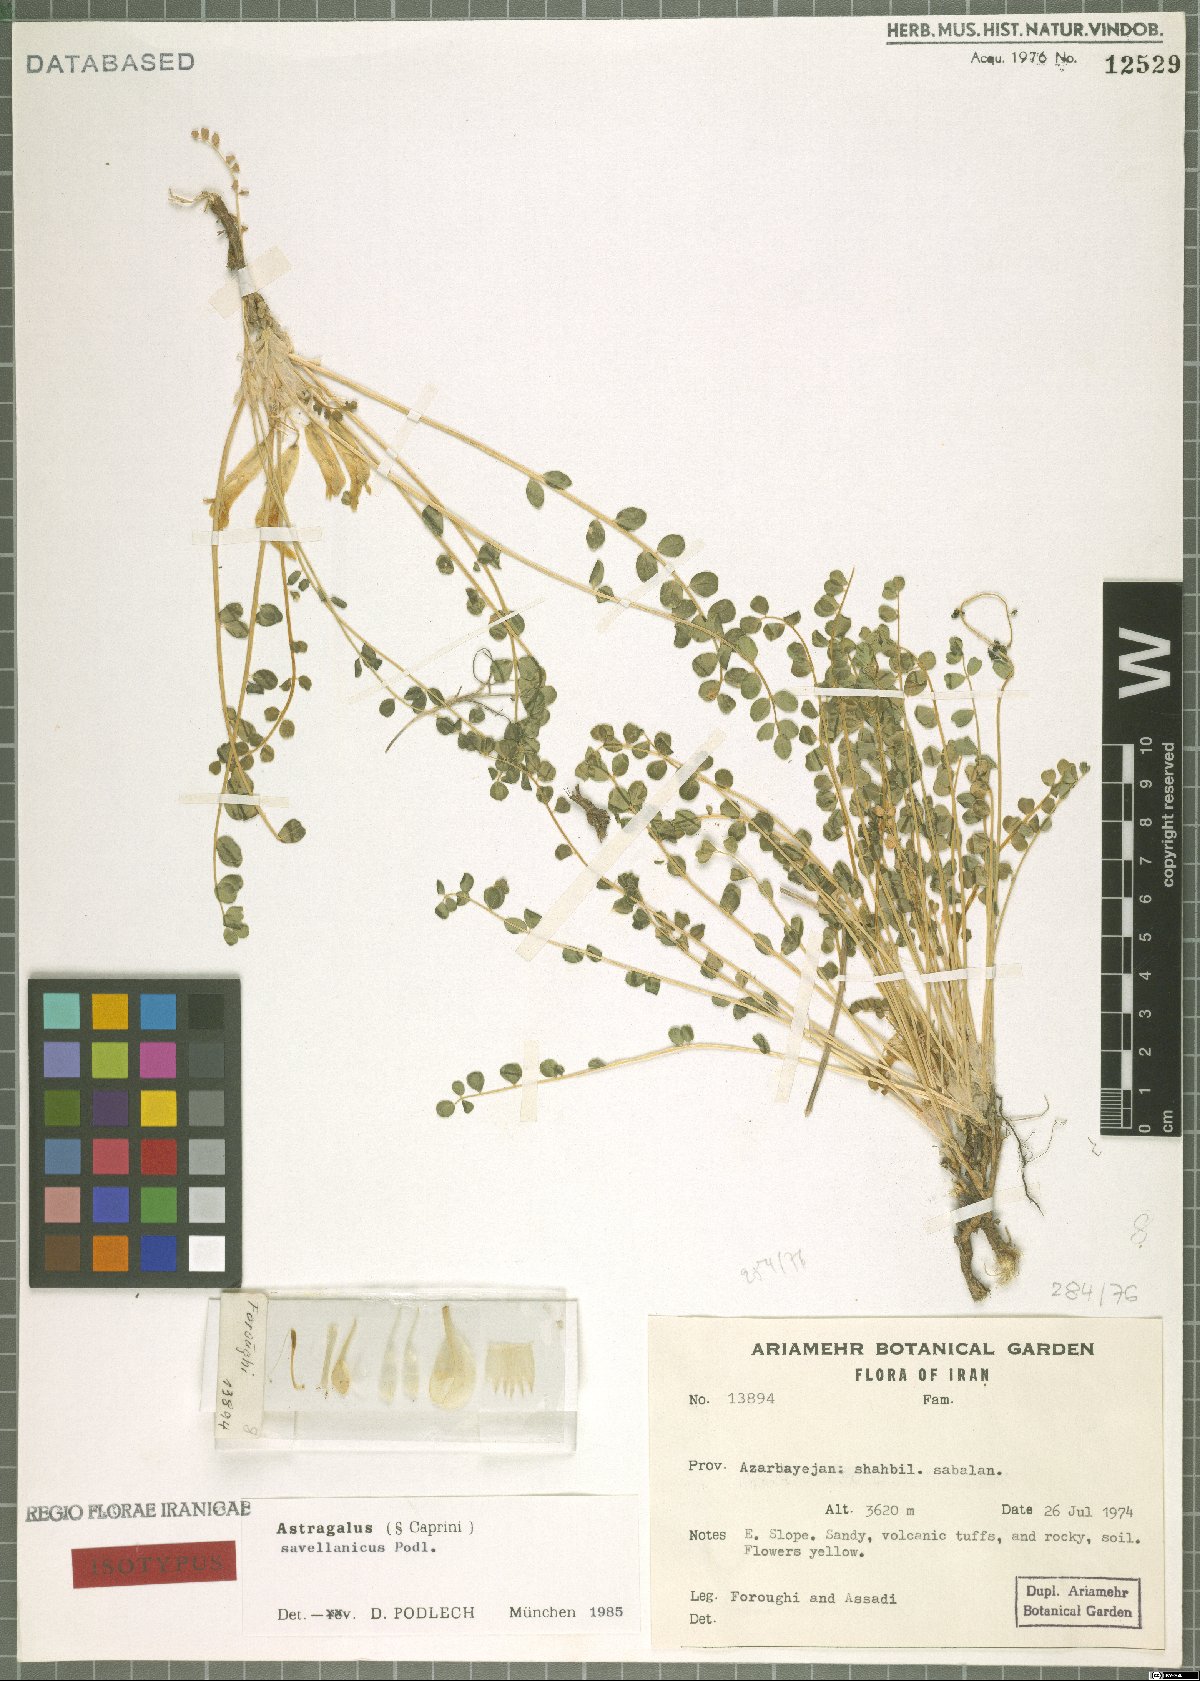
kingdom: Plantae
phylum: Tracheophyta
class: Magnoliopsida
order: Fabales
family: Fabaceae
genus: Astragalus
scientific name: Astragalus savellanicus
